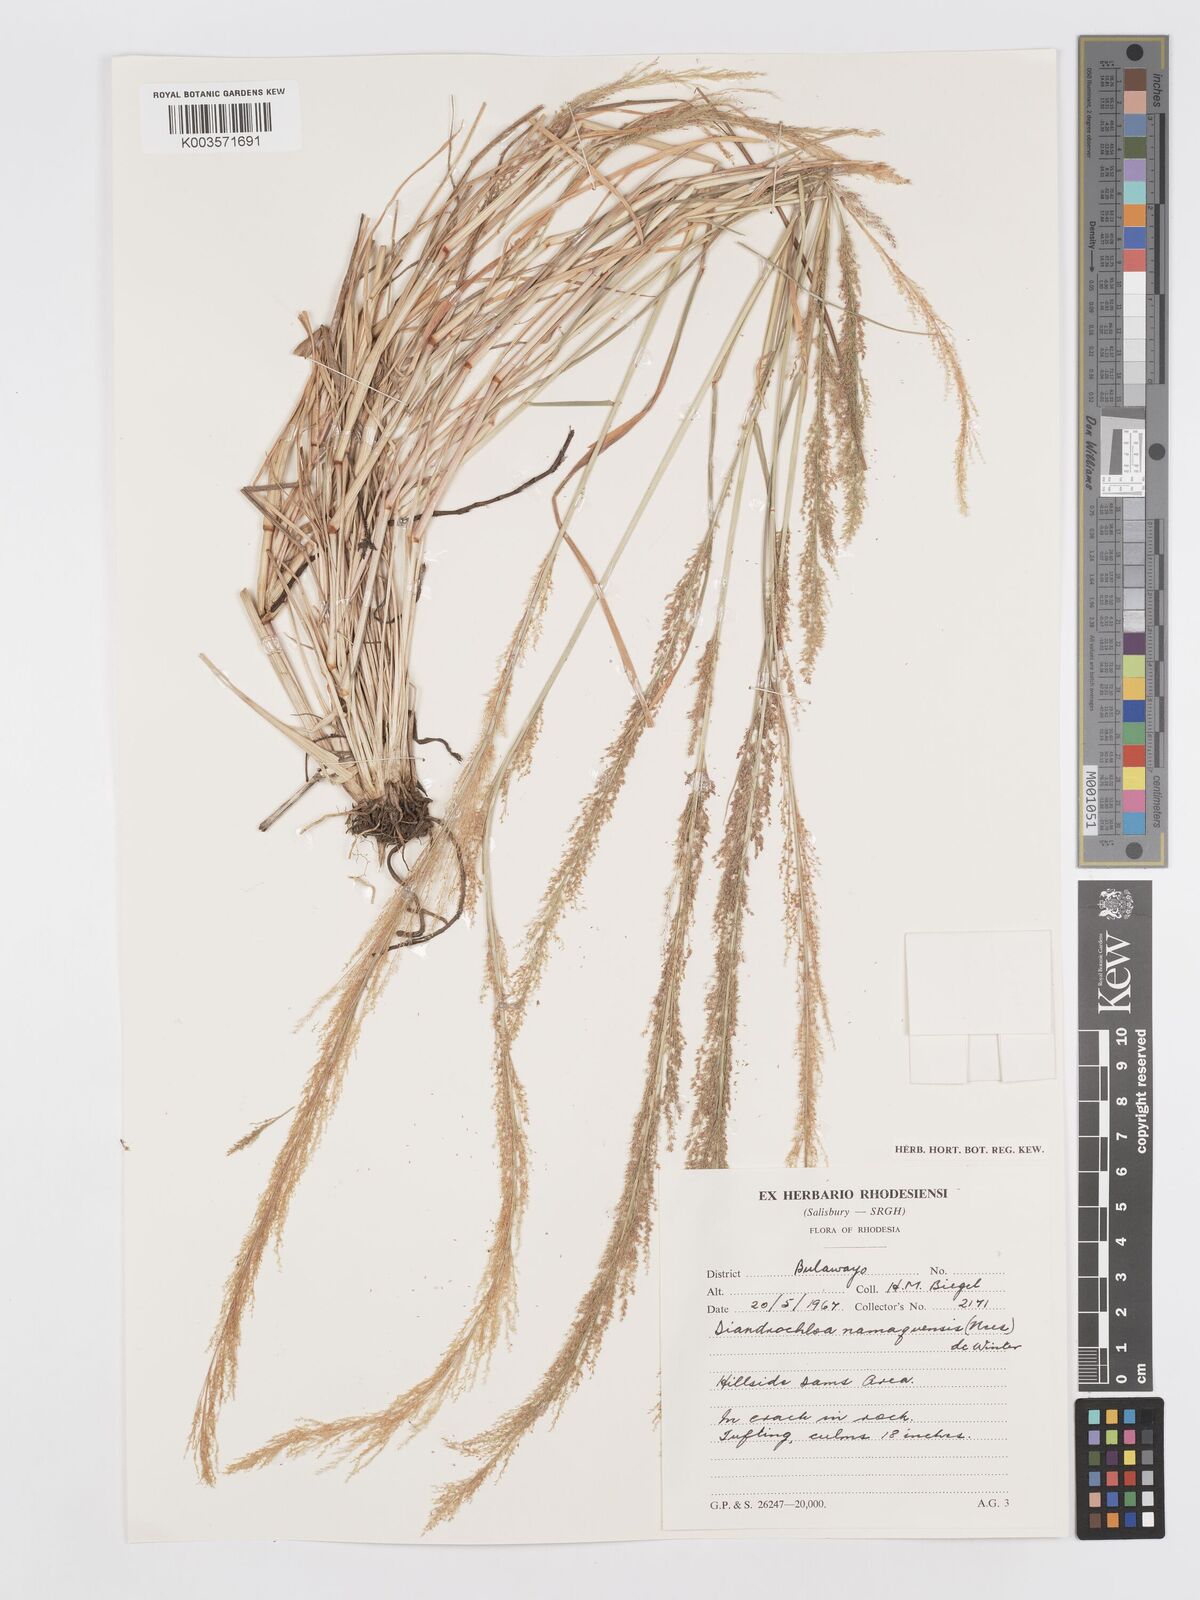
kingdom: Plantae
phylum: Tracheophyta
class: Liliopsida
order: Poales
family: Poaceae
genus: Eragrostis
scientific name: Eragrostis japonica
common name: Pond lovegrass
